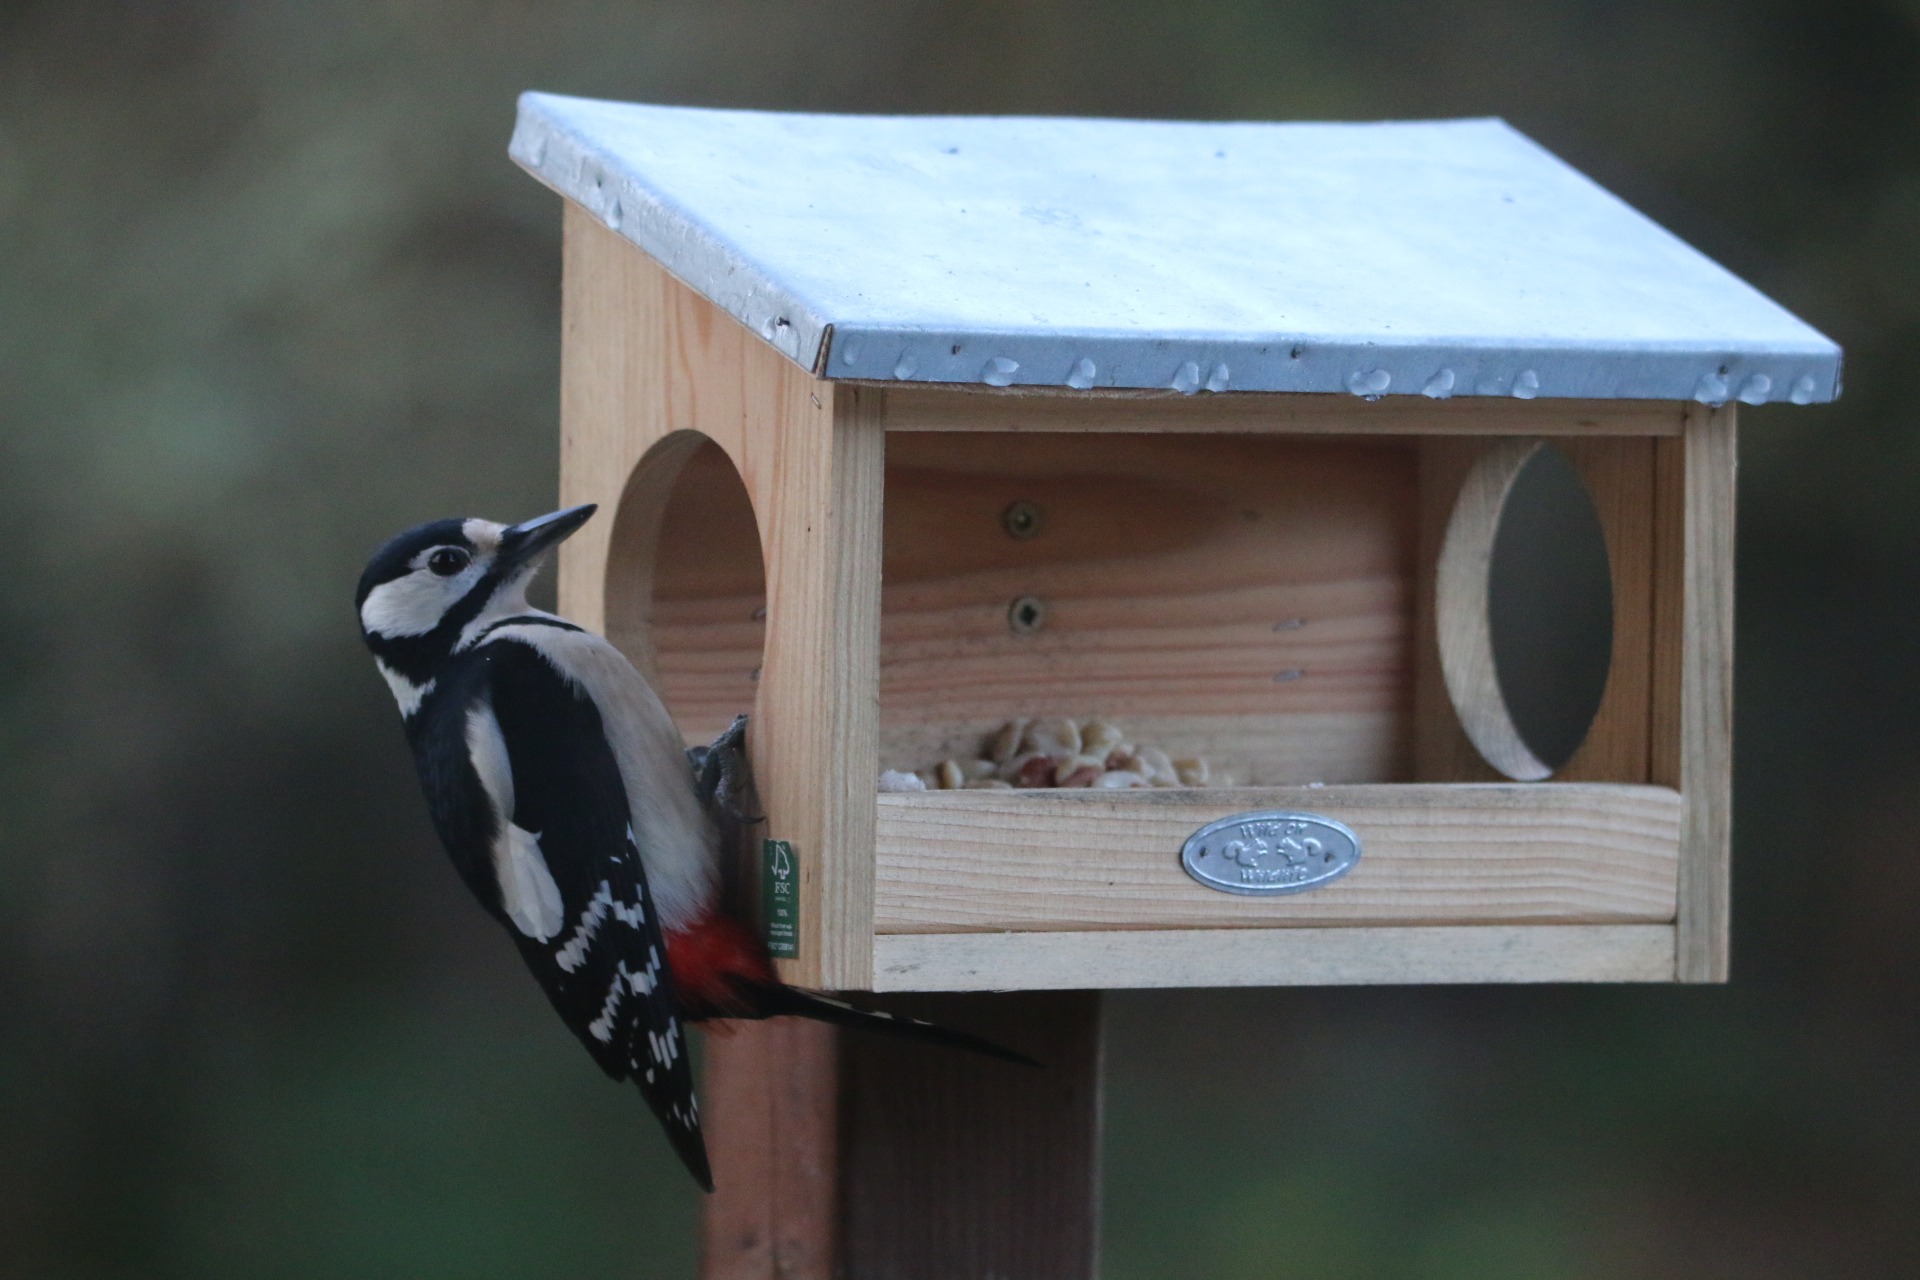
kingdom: Animalia
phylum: Chordata
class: Aves
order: Piciformes
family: Picidae
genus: Dendrocopos
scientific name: Dendrocopos major
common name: Stor flagspætte
